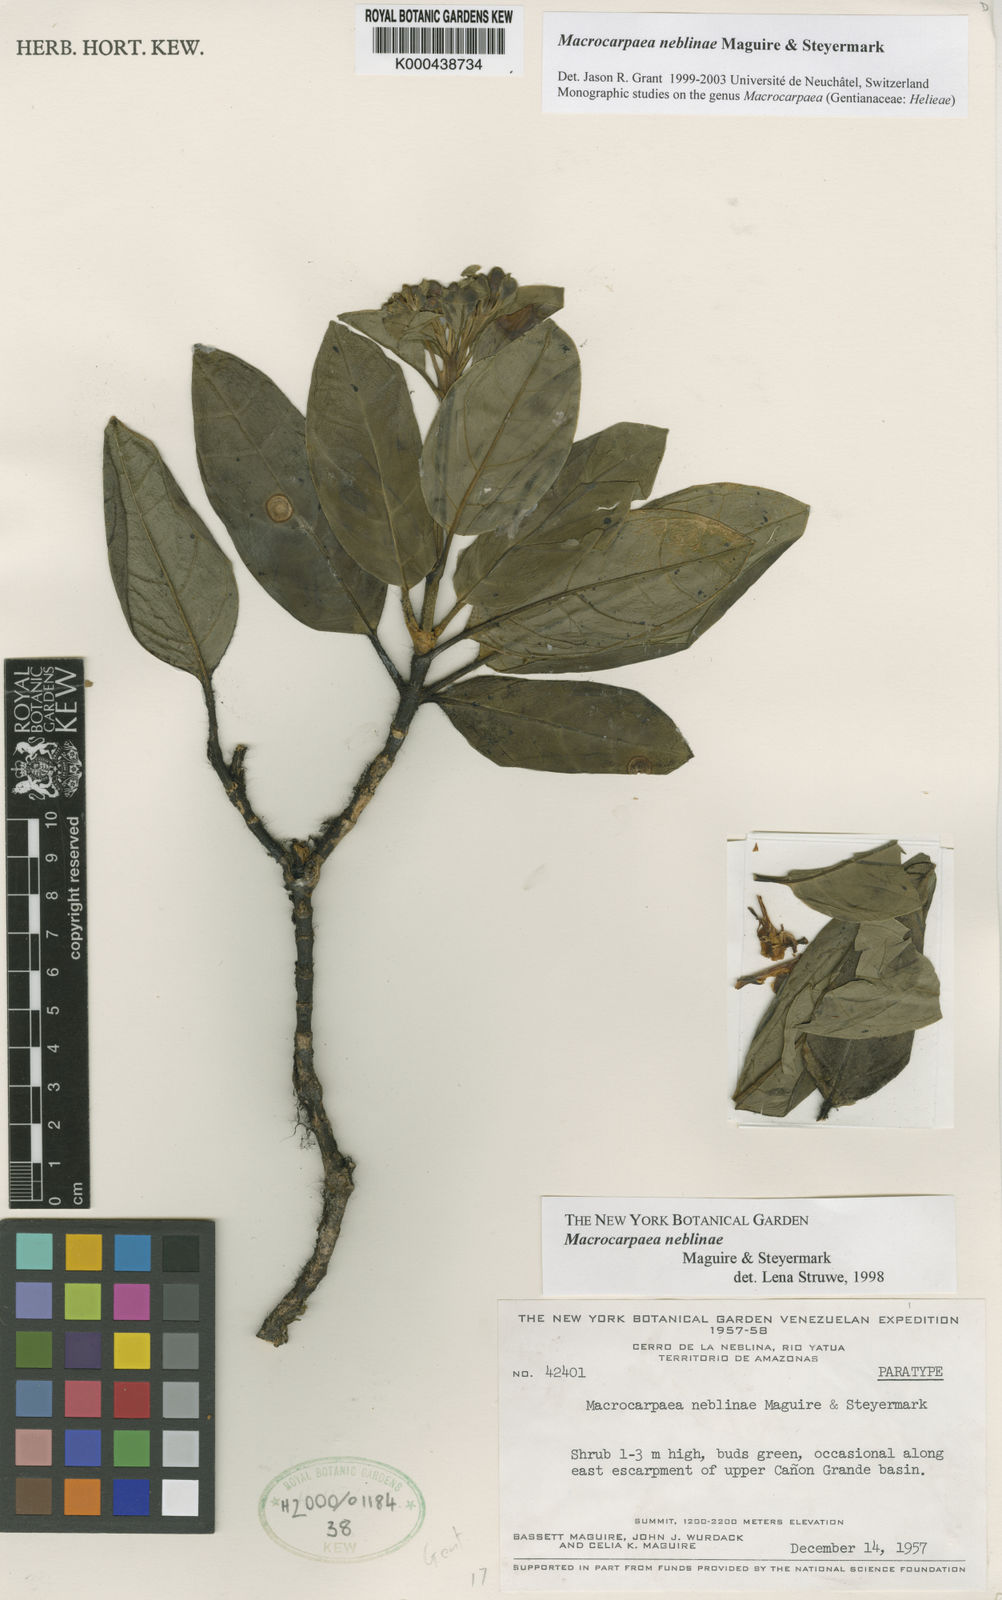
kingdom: Plantae
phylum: Tracheophyta
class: Magnoliopsida
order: Gentianales
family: Gentianaceae
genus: Macrocarpaea
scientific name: Macrocarpaea neblinae
